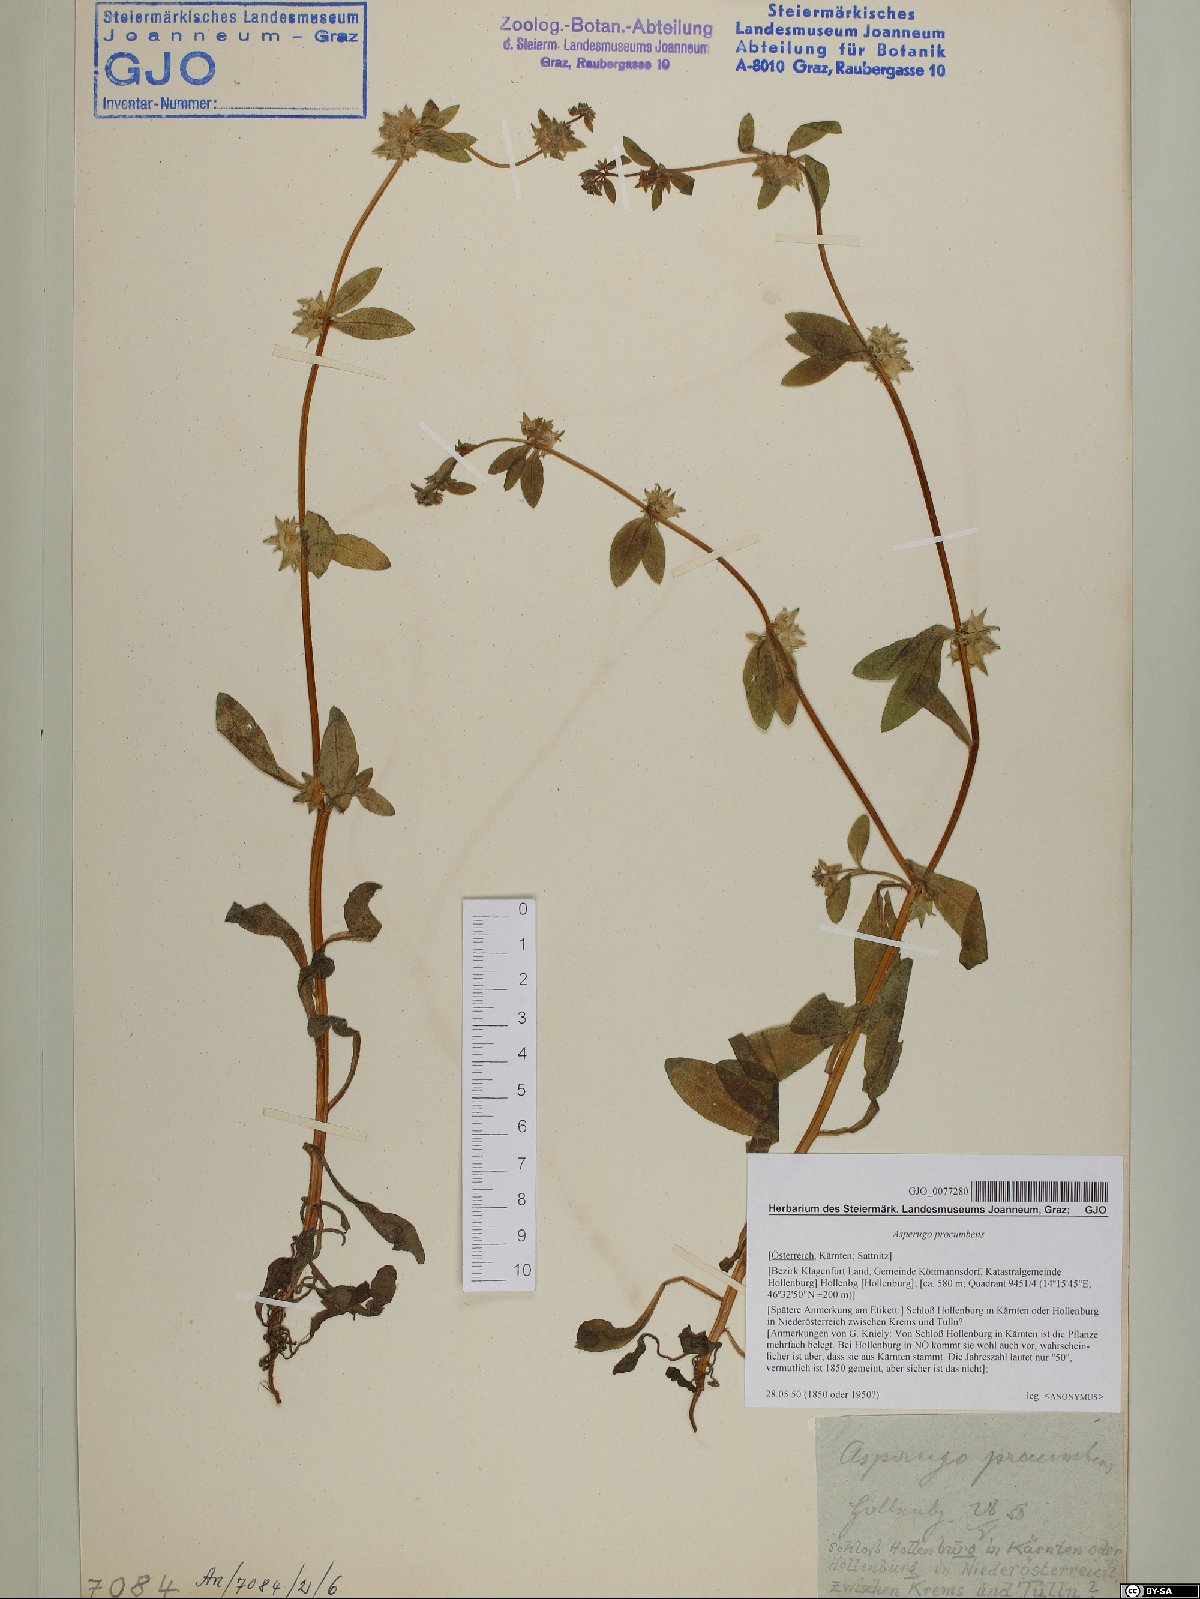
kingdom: Plantae
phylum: Tracheophyta
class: Magnoliopsida
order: Boraginales
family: Boraginaceae
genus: Asperugo
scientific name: Asperugo procumbens
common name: Madwort
